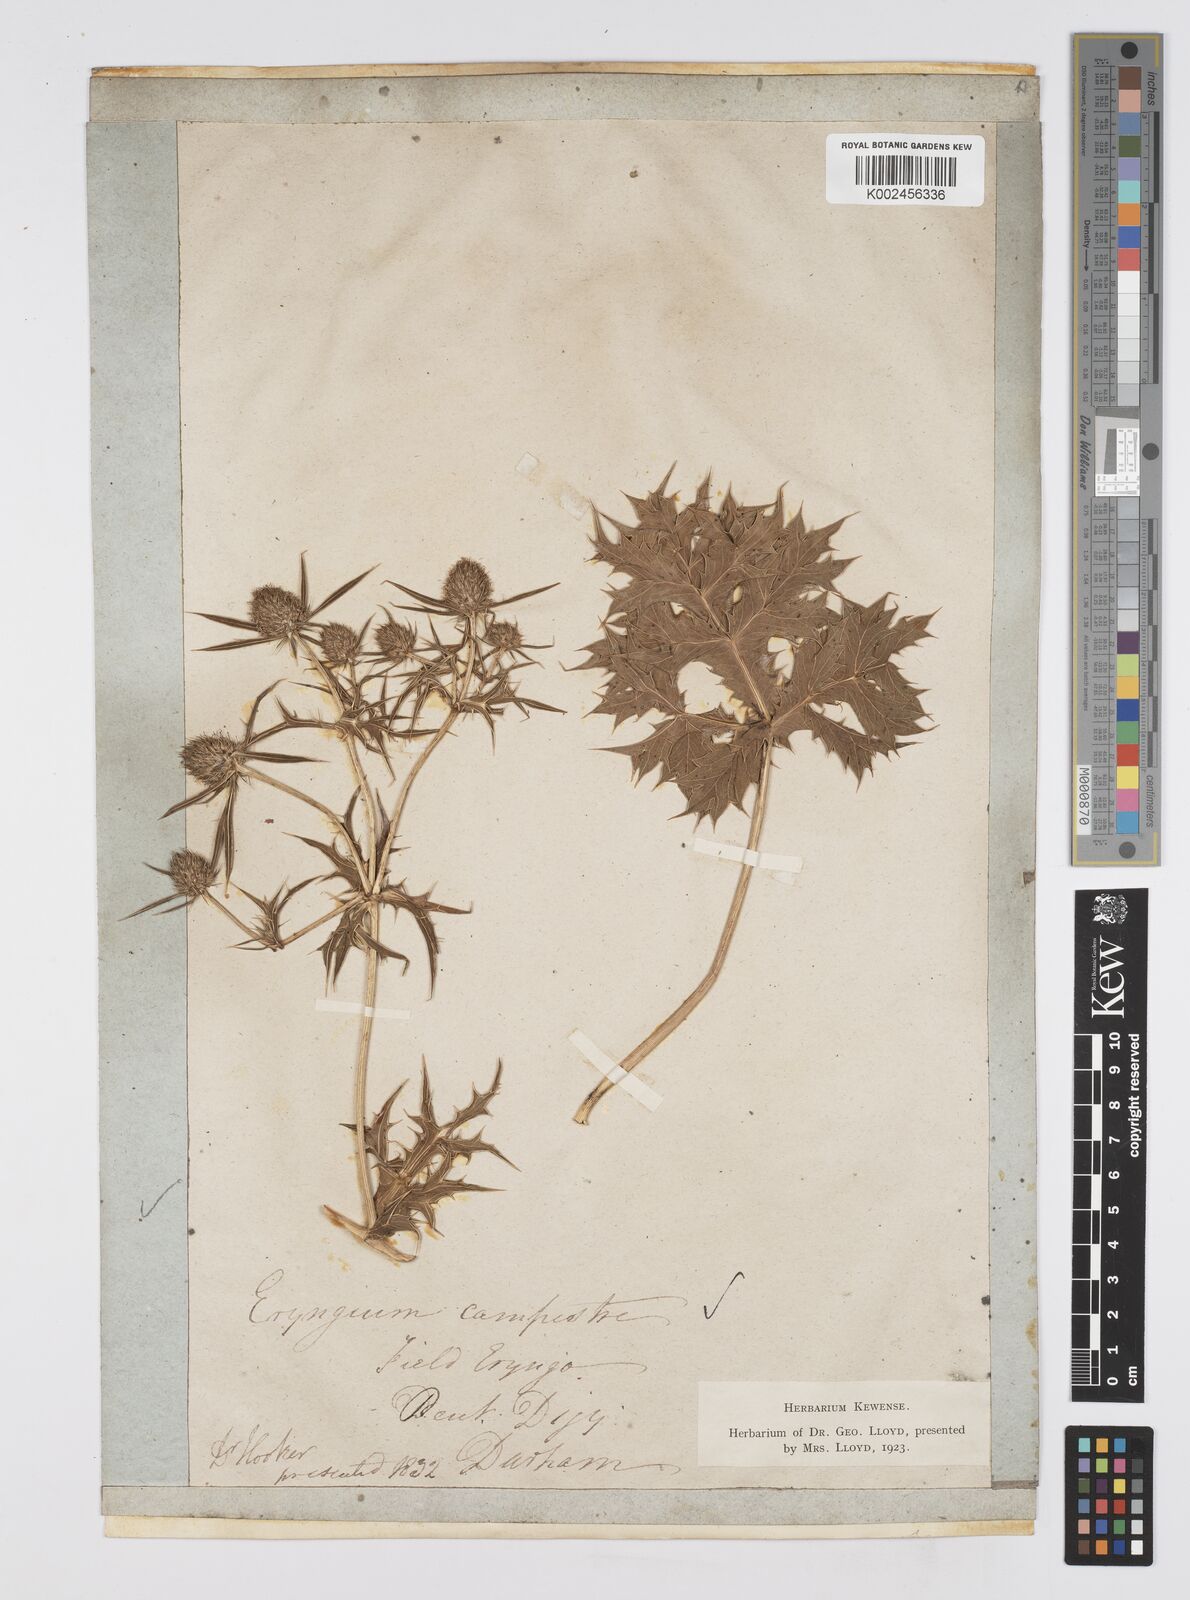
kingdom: Plantae
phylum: Tracheophyta
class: Magnoliopsida
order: Apiales
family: Apiaceae
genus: Eryngium
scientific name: Eryngium campestre
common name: Field eryngo
